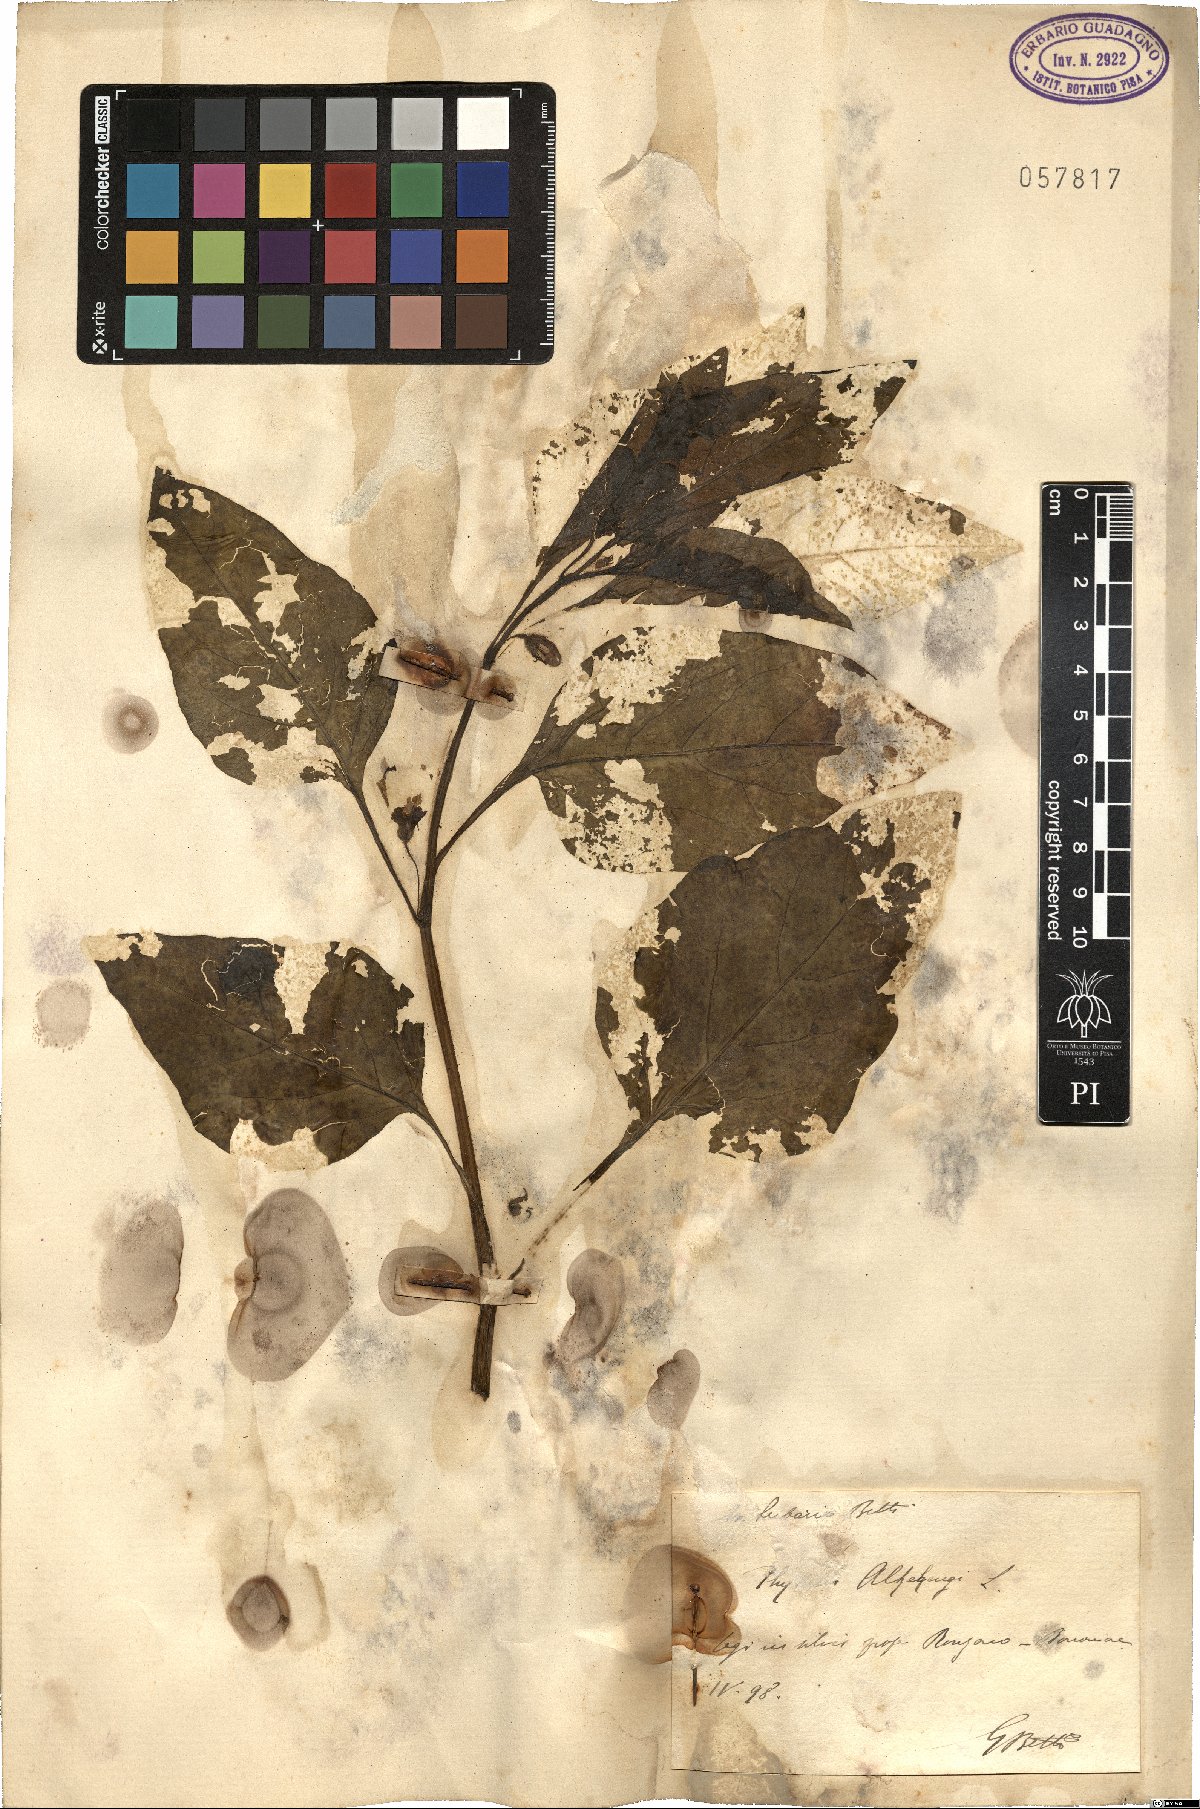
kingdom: Plantae
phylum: Tracheophyta
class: Magnoliopsida
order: Solanales
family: Solanaceae
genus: Alkekengi
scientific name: Alkekengi officinarum
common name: Japanese-lantern
